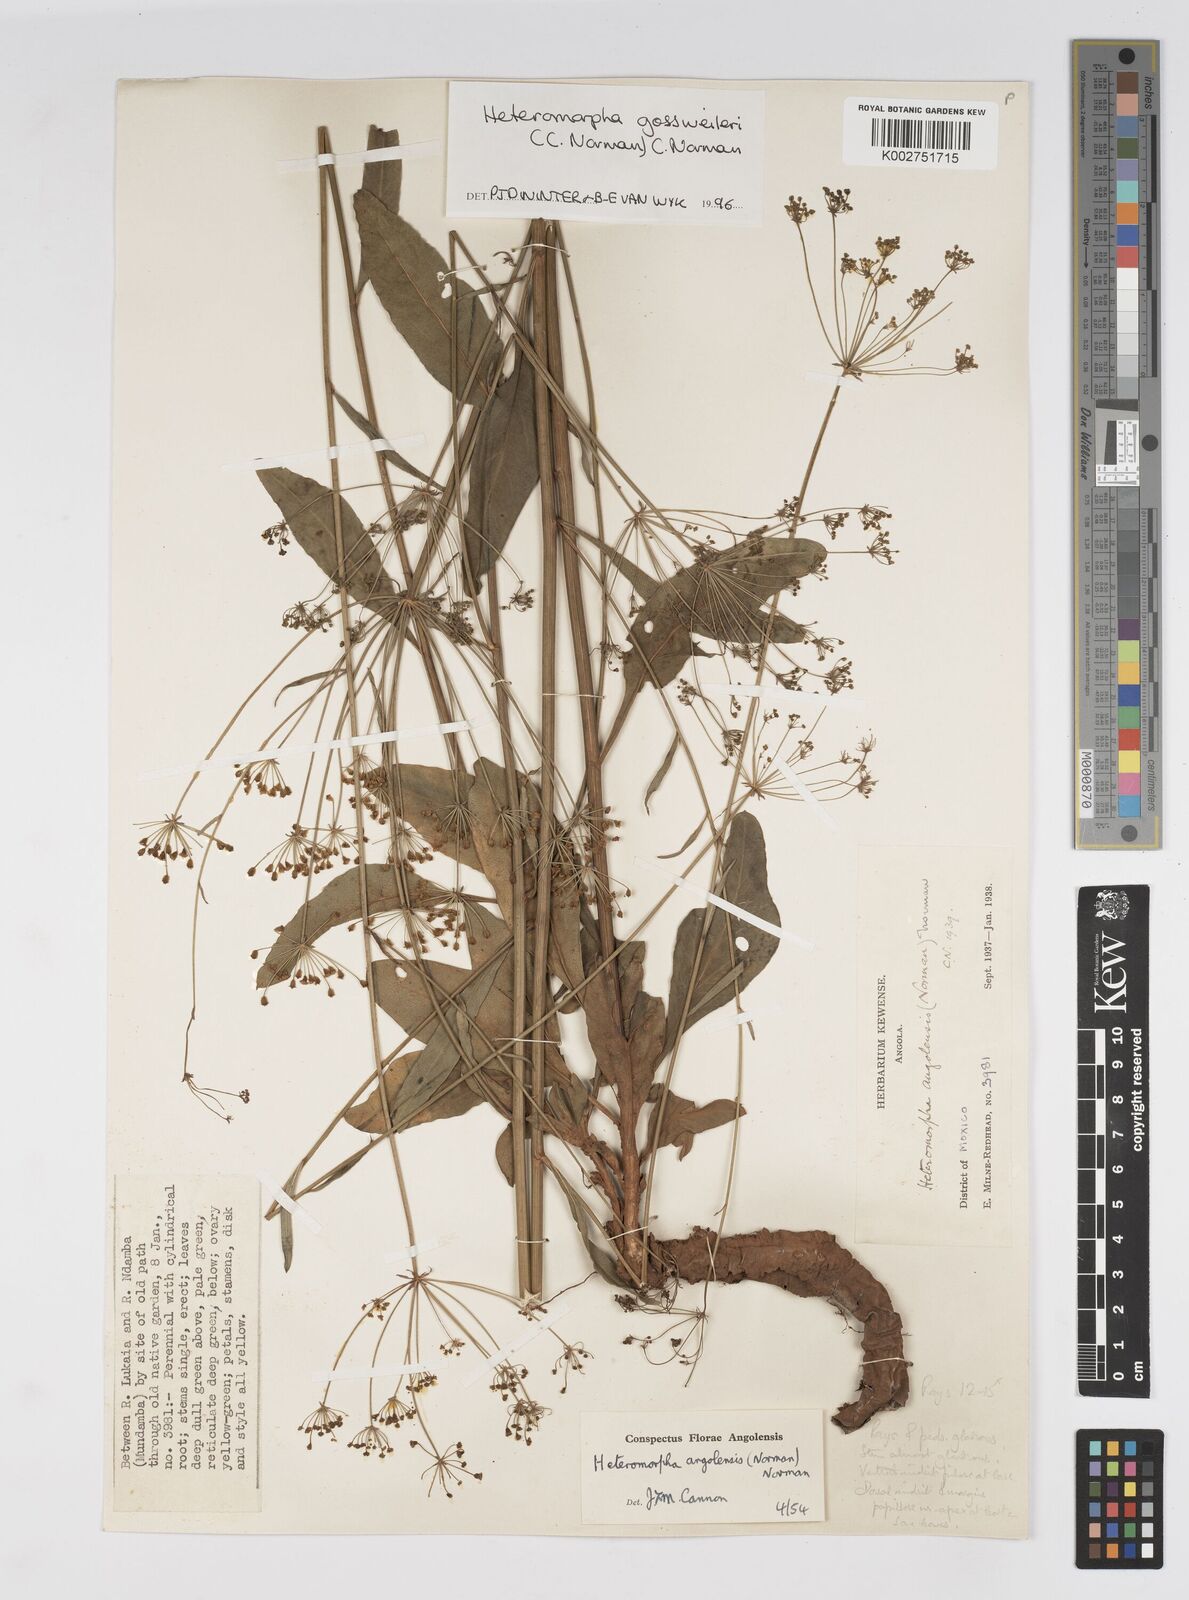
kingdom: Plantae
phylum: Tracheophyta
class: Magnoliopsida
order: Apiales
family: Apiaceae
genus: Heteromorpha
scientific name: Heteromorpha gossweileri
